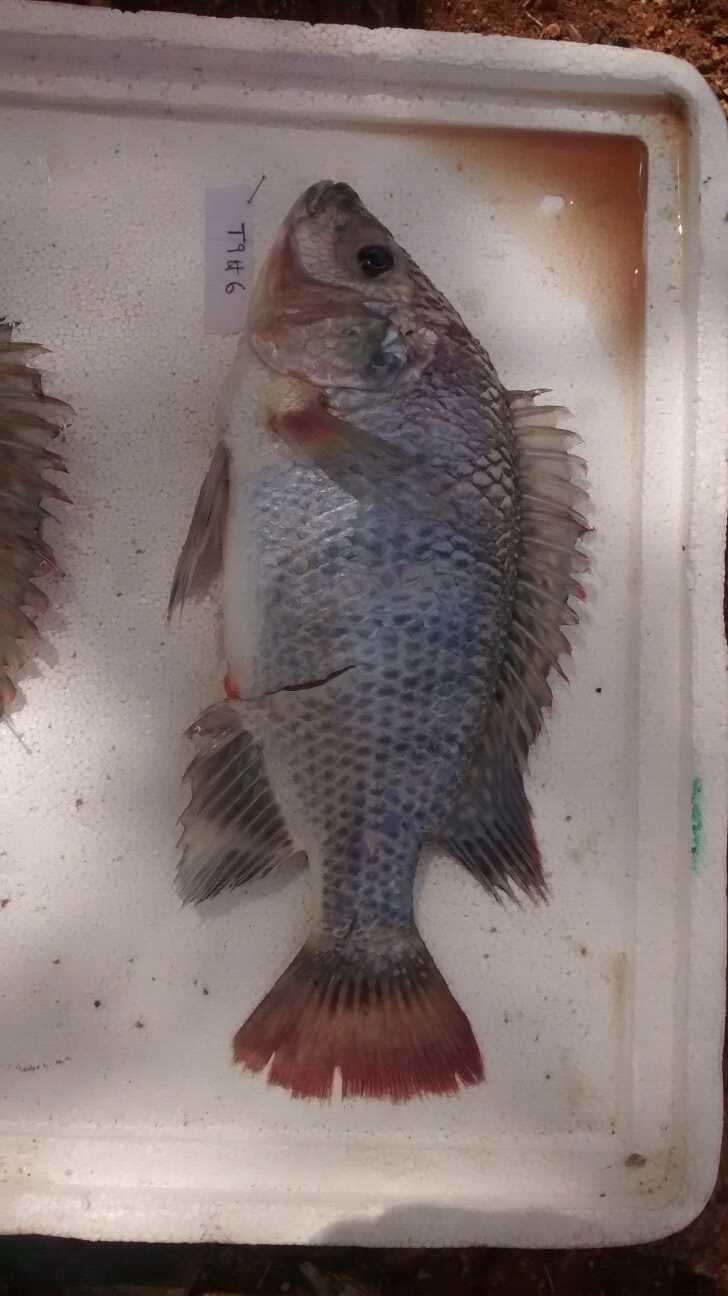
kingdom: Animalia
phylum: Chordata
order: Perciformes
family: Cichlidae
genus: Oreochromis
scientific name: Oreochromis rukwaensis
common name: Lake rukwa tilapia
